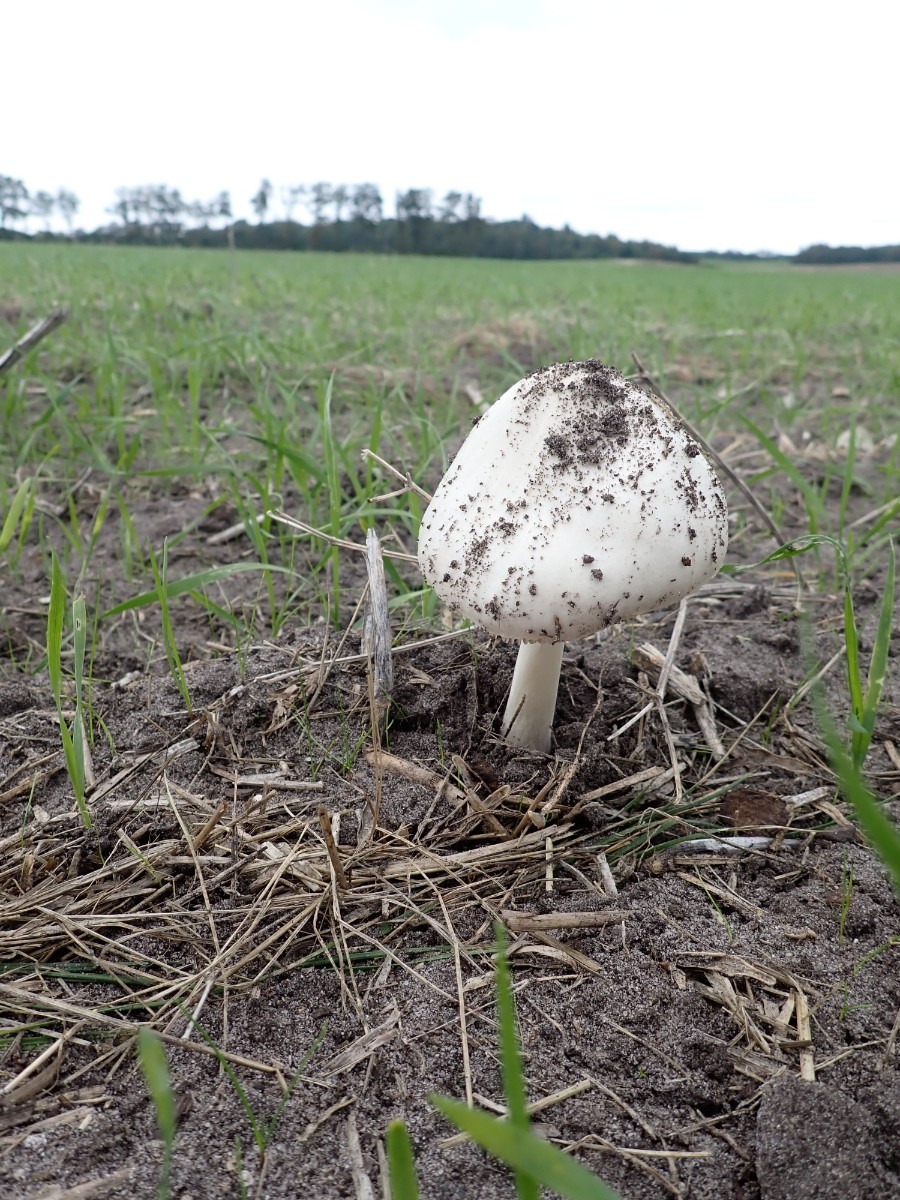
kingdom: Fungi
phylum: Basidiomycota
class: Agaricomycetes
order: Agaricales
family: Pluteaceae
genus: Volvopluteus
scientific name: Volvopluteus gloiocephalus
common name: høj posesvamp
